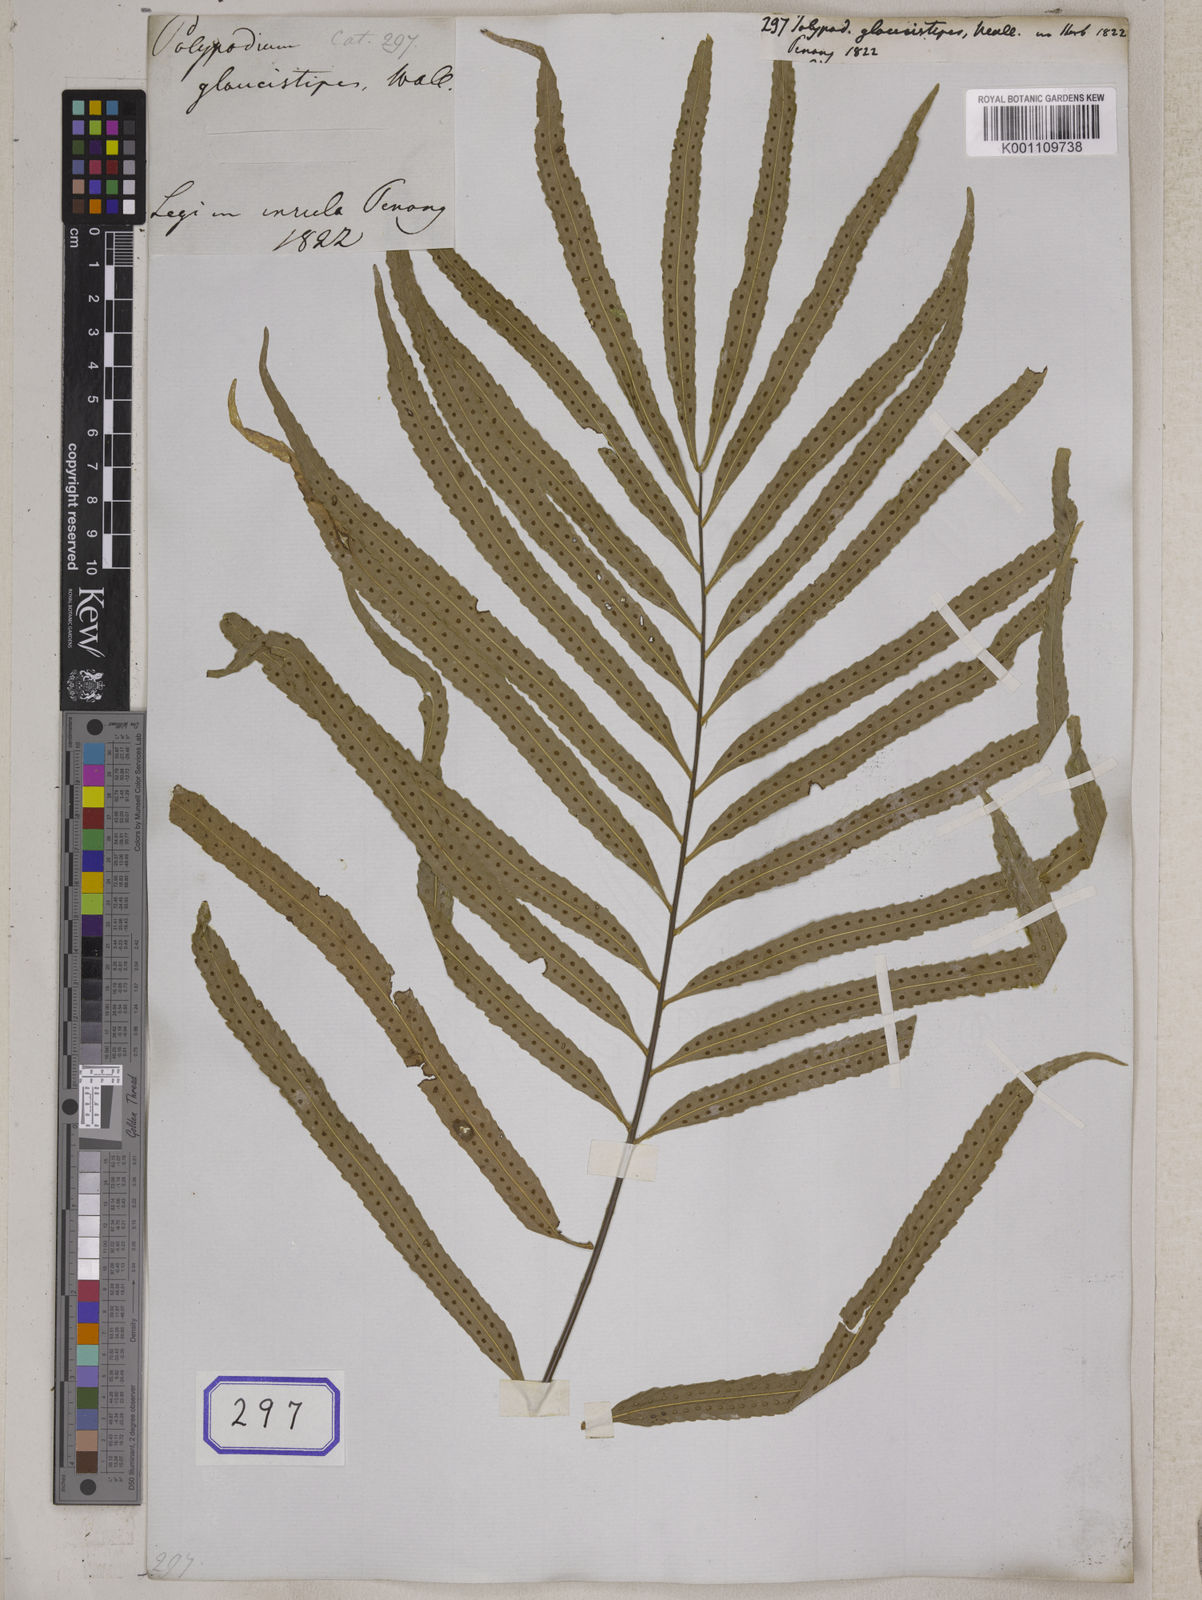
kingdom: Plantae
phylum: Tracheophyta
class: Polypodiopsida
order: Polypodiales
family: Polypodiaceae
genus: Drynaria
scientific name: Drynaria rigidula
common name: Basket fern
